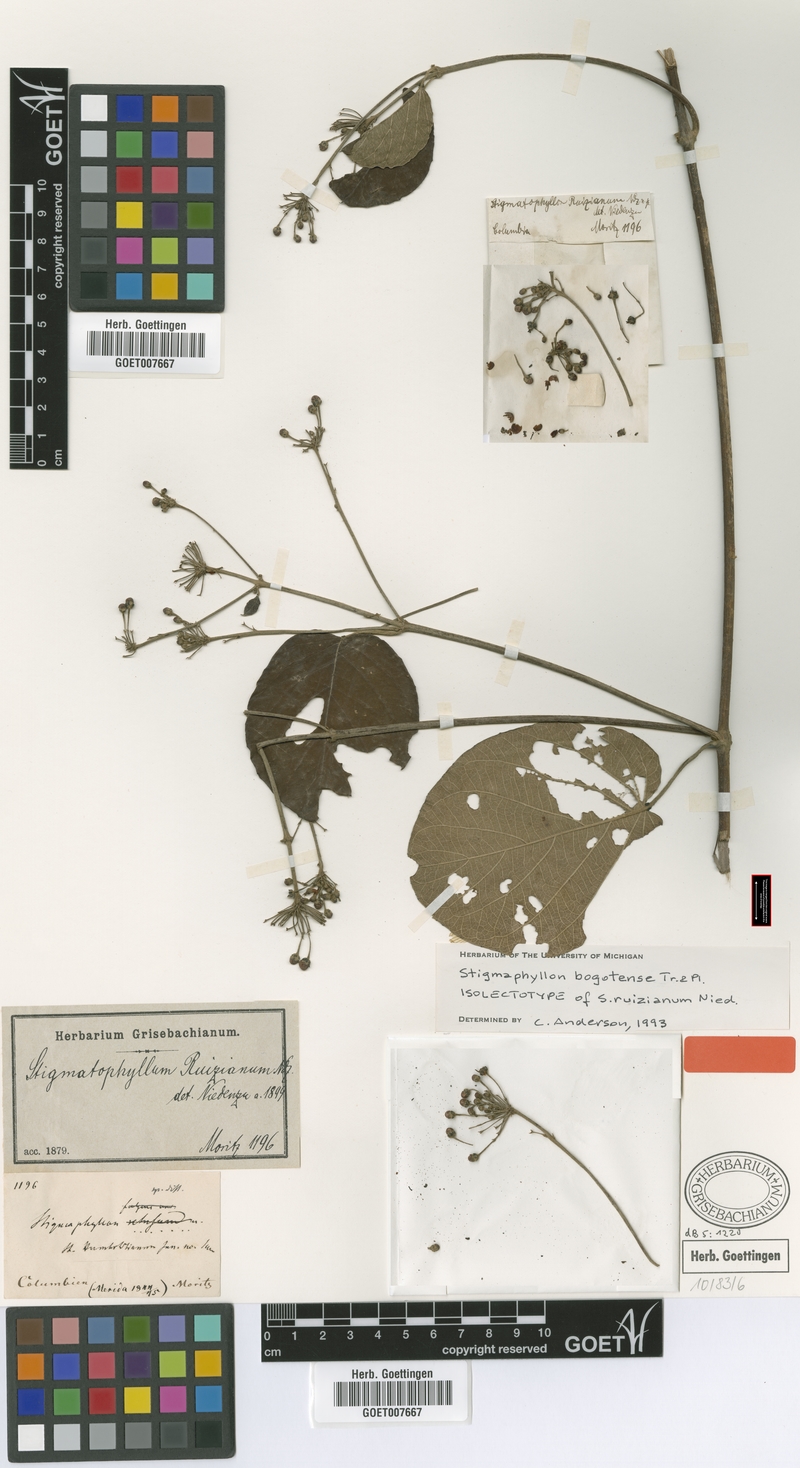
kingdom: Plantae
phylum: Tracheophyta
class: Magnoliopsida
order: Malpighiales
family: Malpighiaceae
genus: Stigmaphyllon
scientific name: Stigmaphyllon bogotense
